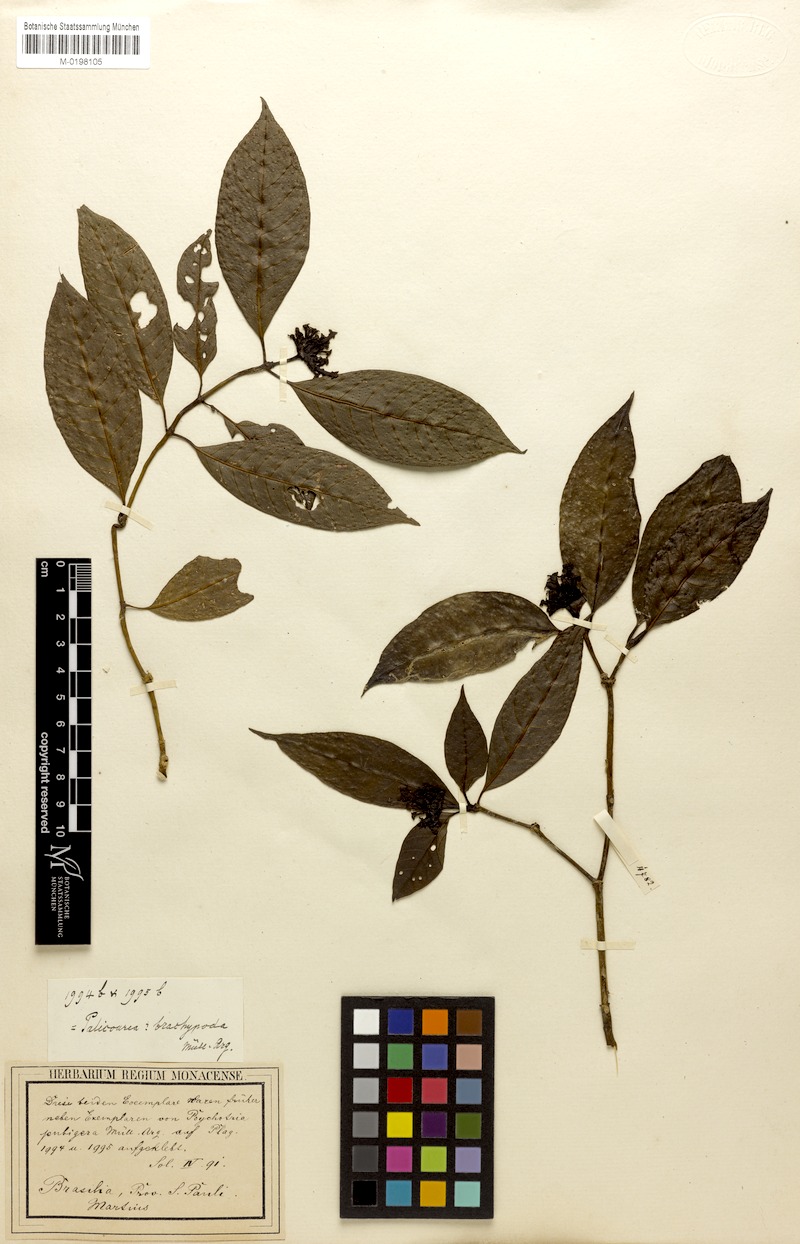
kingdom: Plantae
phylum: Tracheophyta
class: Magnoliopsida
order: Gentianales
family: Rubiaceae
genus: Psychotria
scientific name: Psychotria brachypoda
